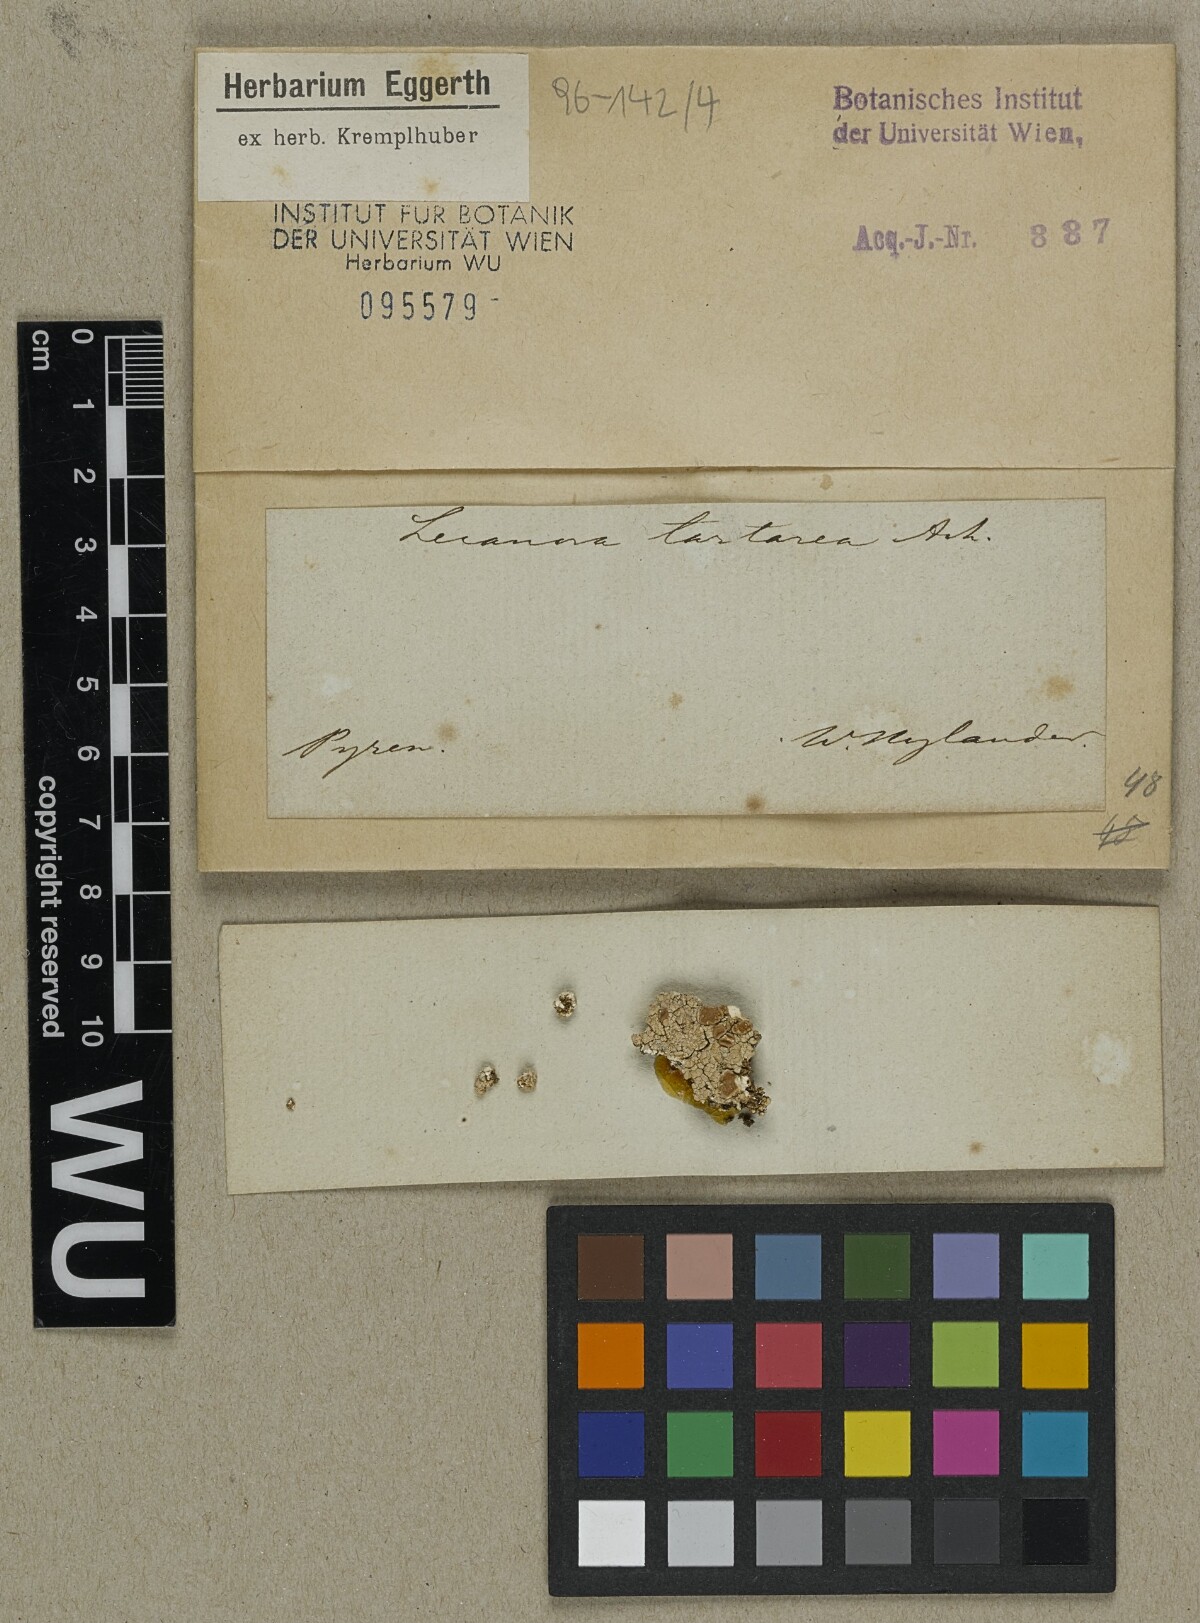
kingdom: Fungi
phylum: Ascomycota
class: Lecanoromycetes
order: Pertusariales
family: Ochrolechiaceae
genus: Ochrolechia
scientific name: Ochrolechia tartarea
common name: Cudbear
